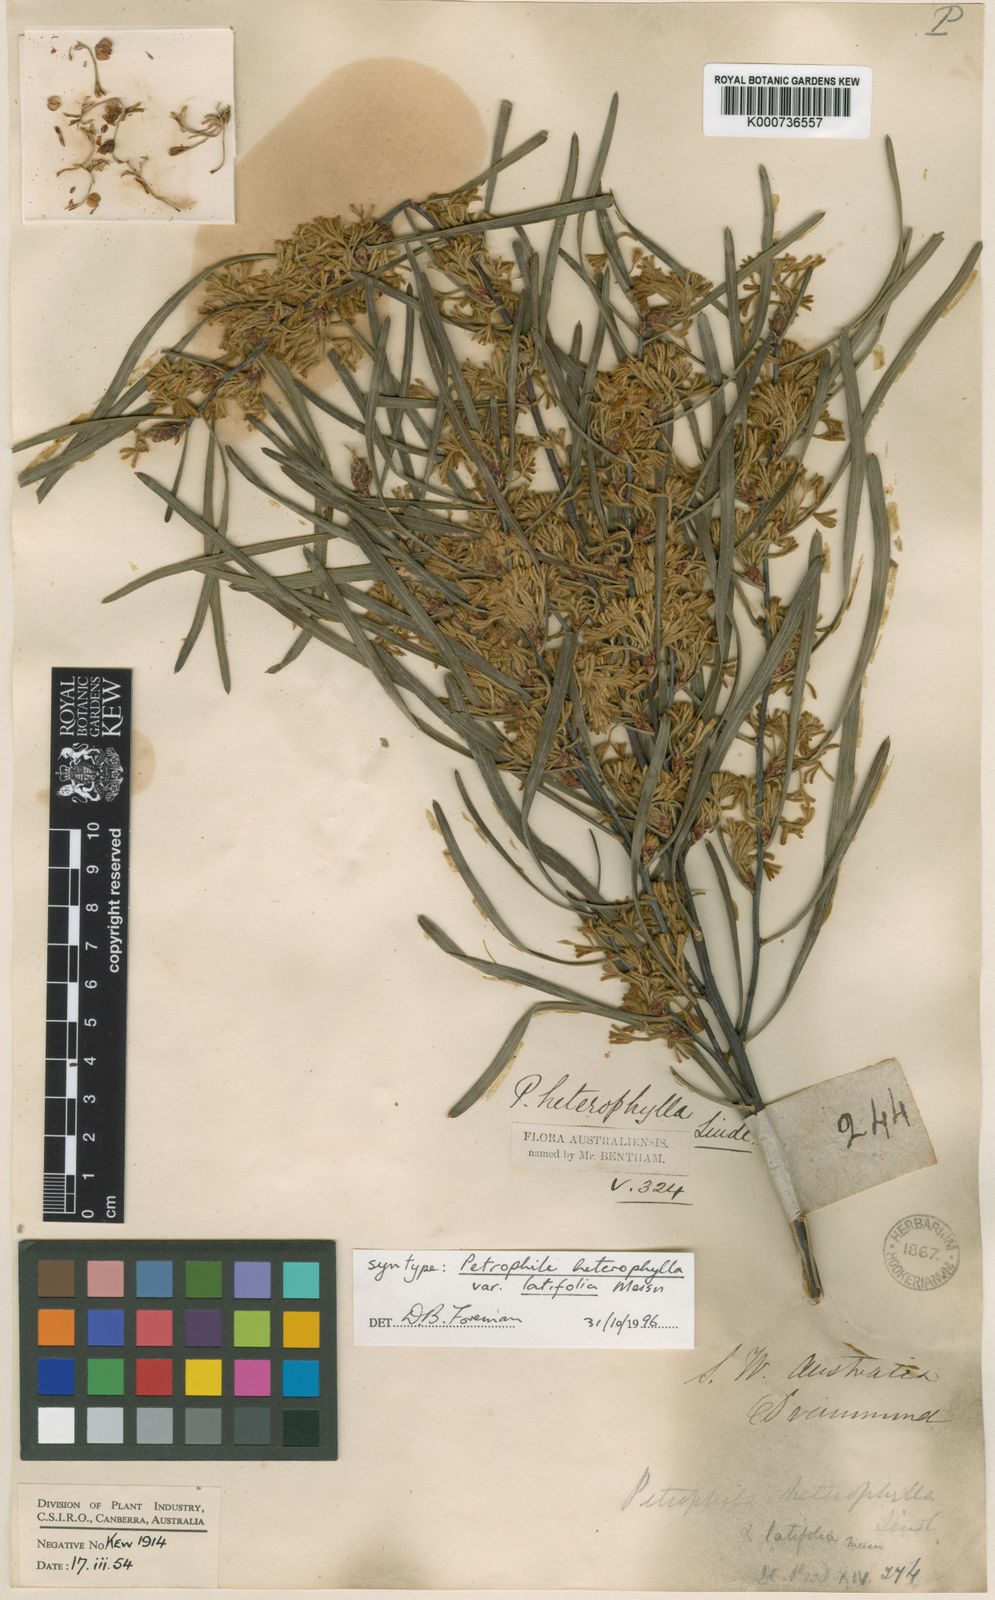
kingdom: Plantae
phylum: Tracheophyta
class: Magnoliopsida
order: Proteales
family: Proteaceae
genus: Petrophile
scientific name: Petrophile heterophylla
